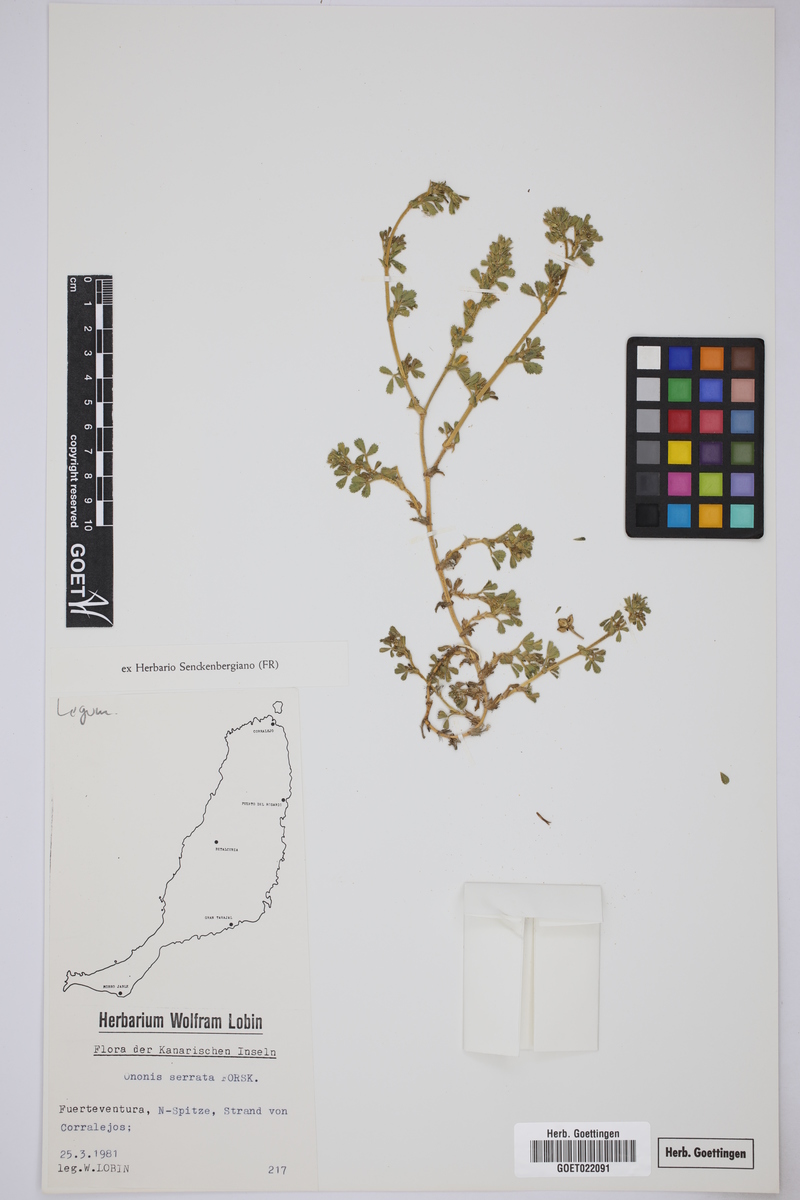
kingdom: Plantae
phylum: Tracheophyta
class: Magnoliopsida
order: Fabales
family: Fabaceae
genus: Ononis
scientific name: Ononis serrata
